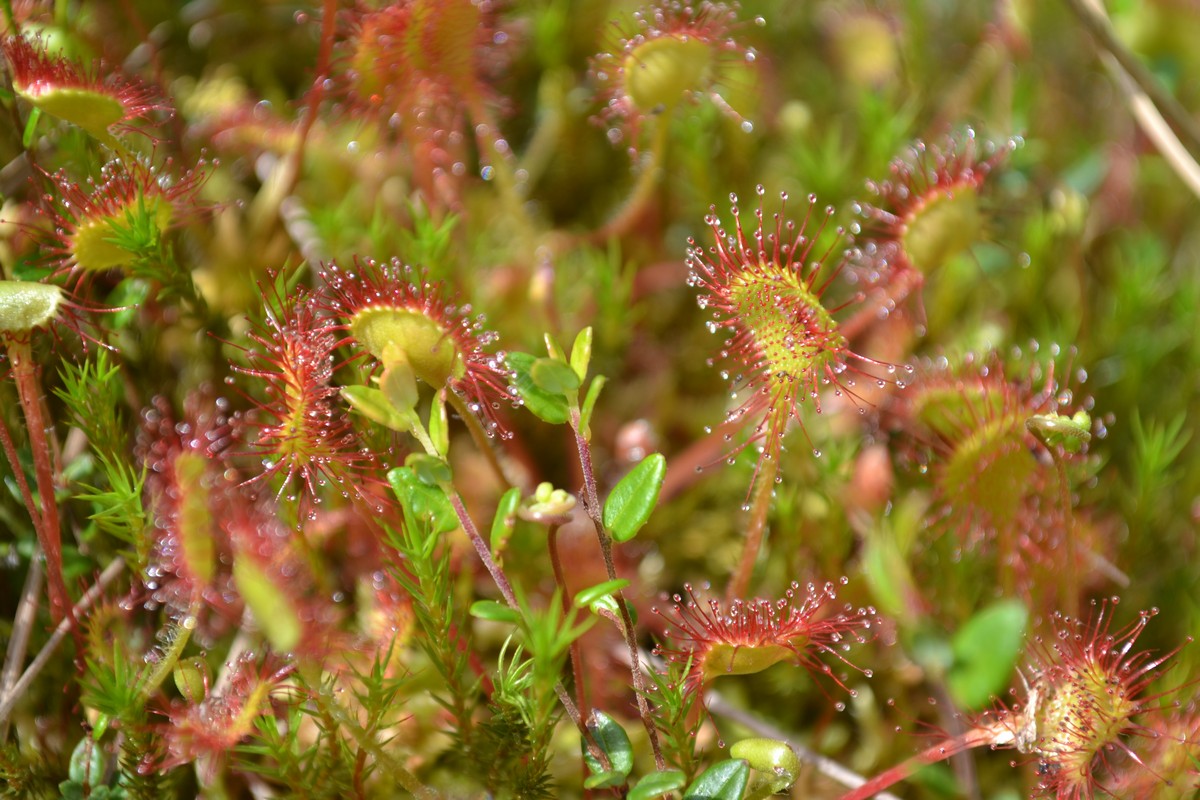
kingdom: Plantae
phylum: Tracheophyta
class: Magnoliopsida
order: Caryophyllales
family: Droseraceae
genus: Drosera
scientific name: Drosera rotundifolia
